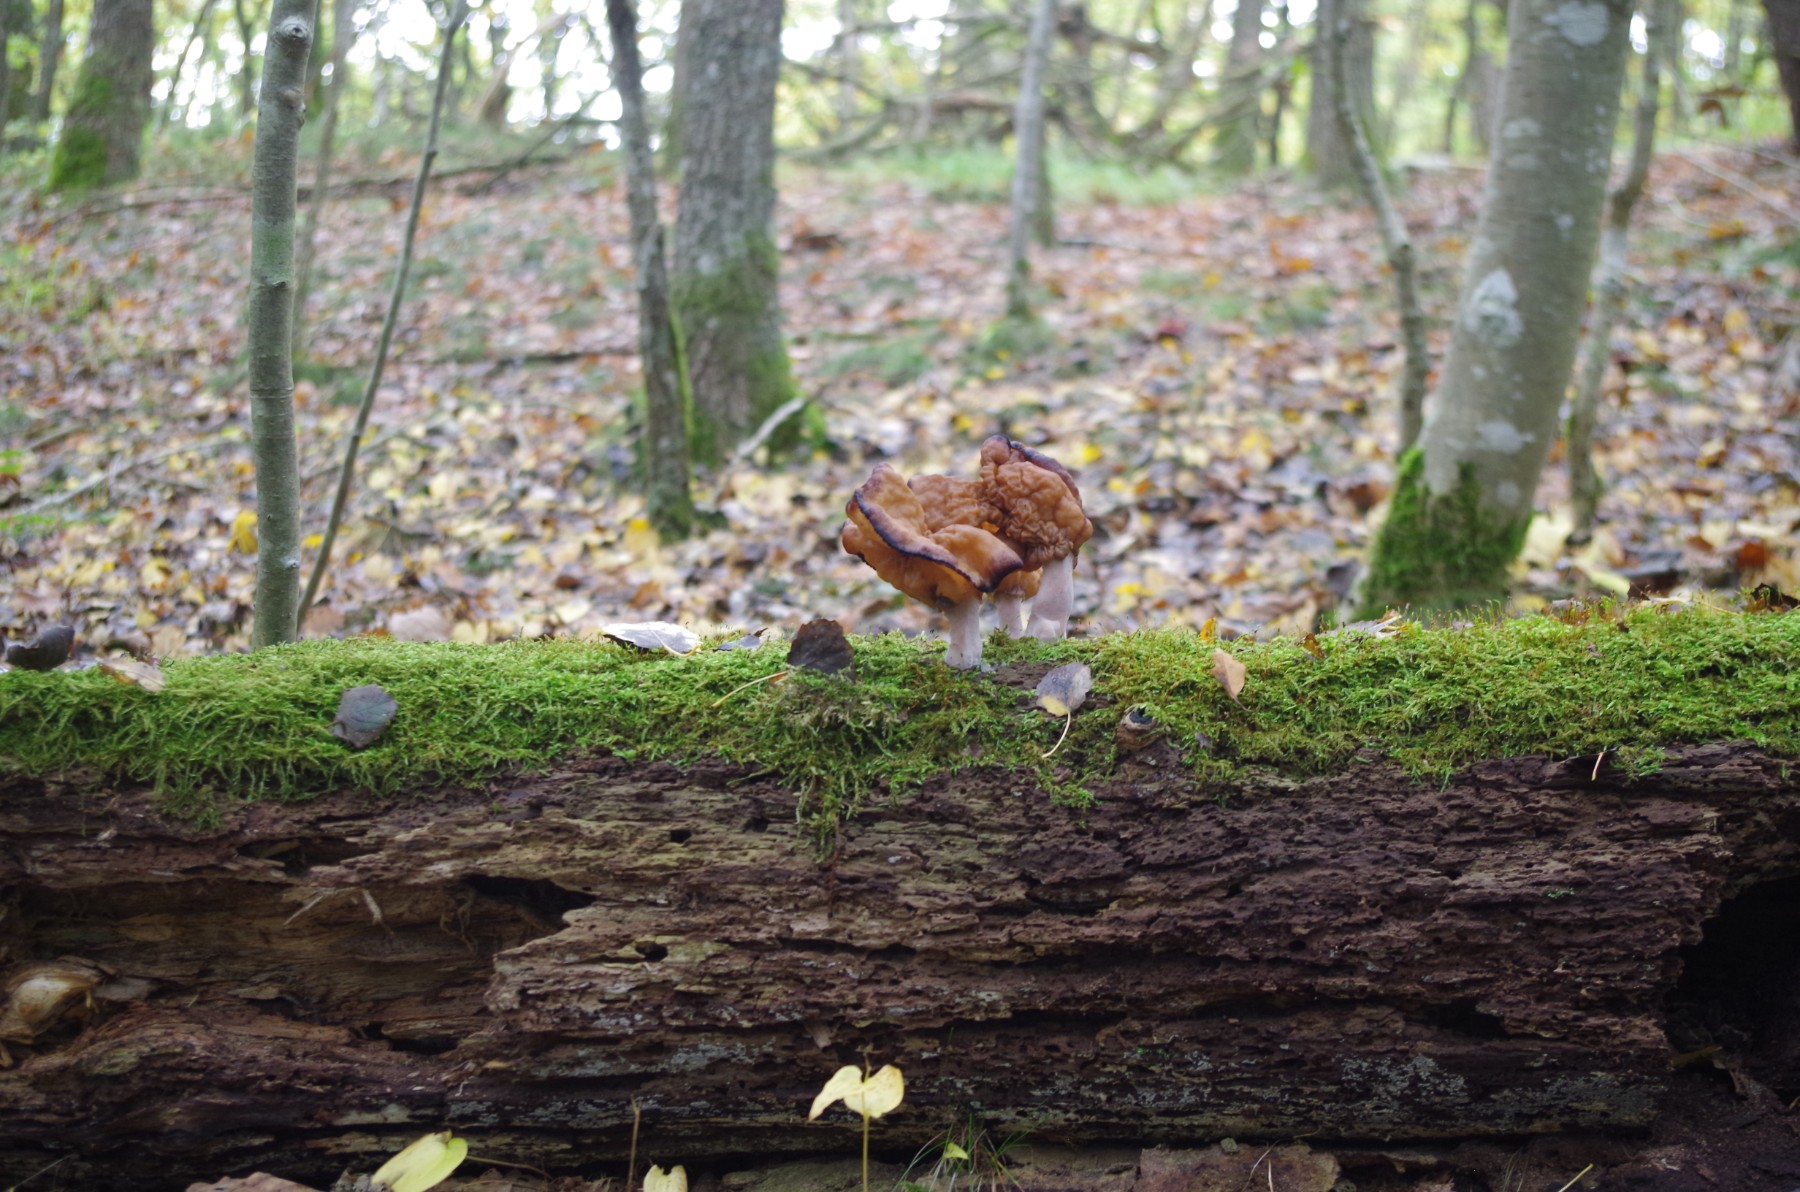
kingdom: Fungi
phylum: Ascomycota
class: Pezizomycetes
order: Pezizales
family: Discinaceae
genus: Gyromitra
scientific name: Gyromitra infula
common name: bispehue-stenmorkel
